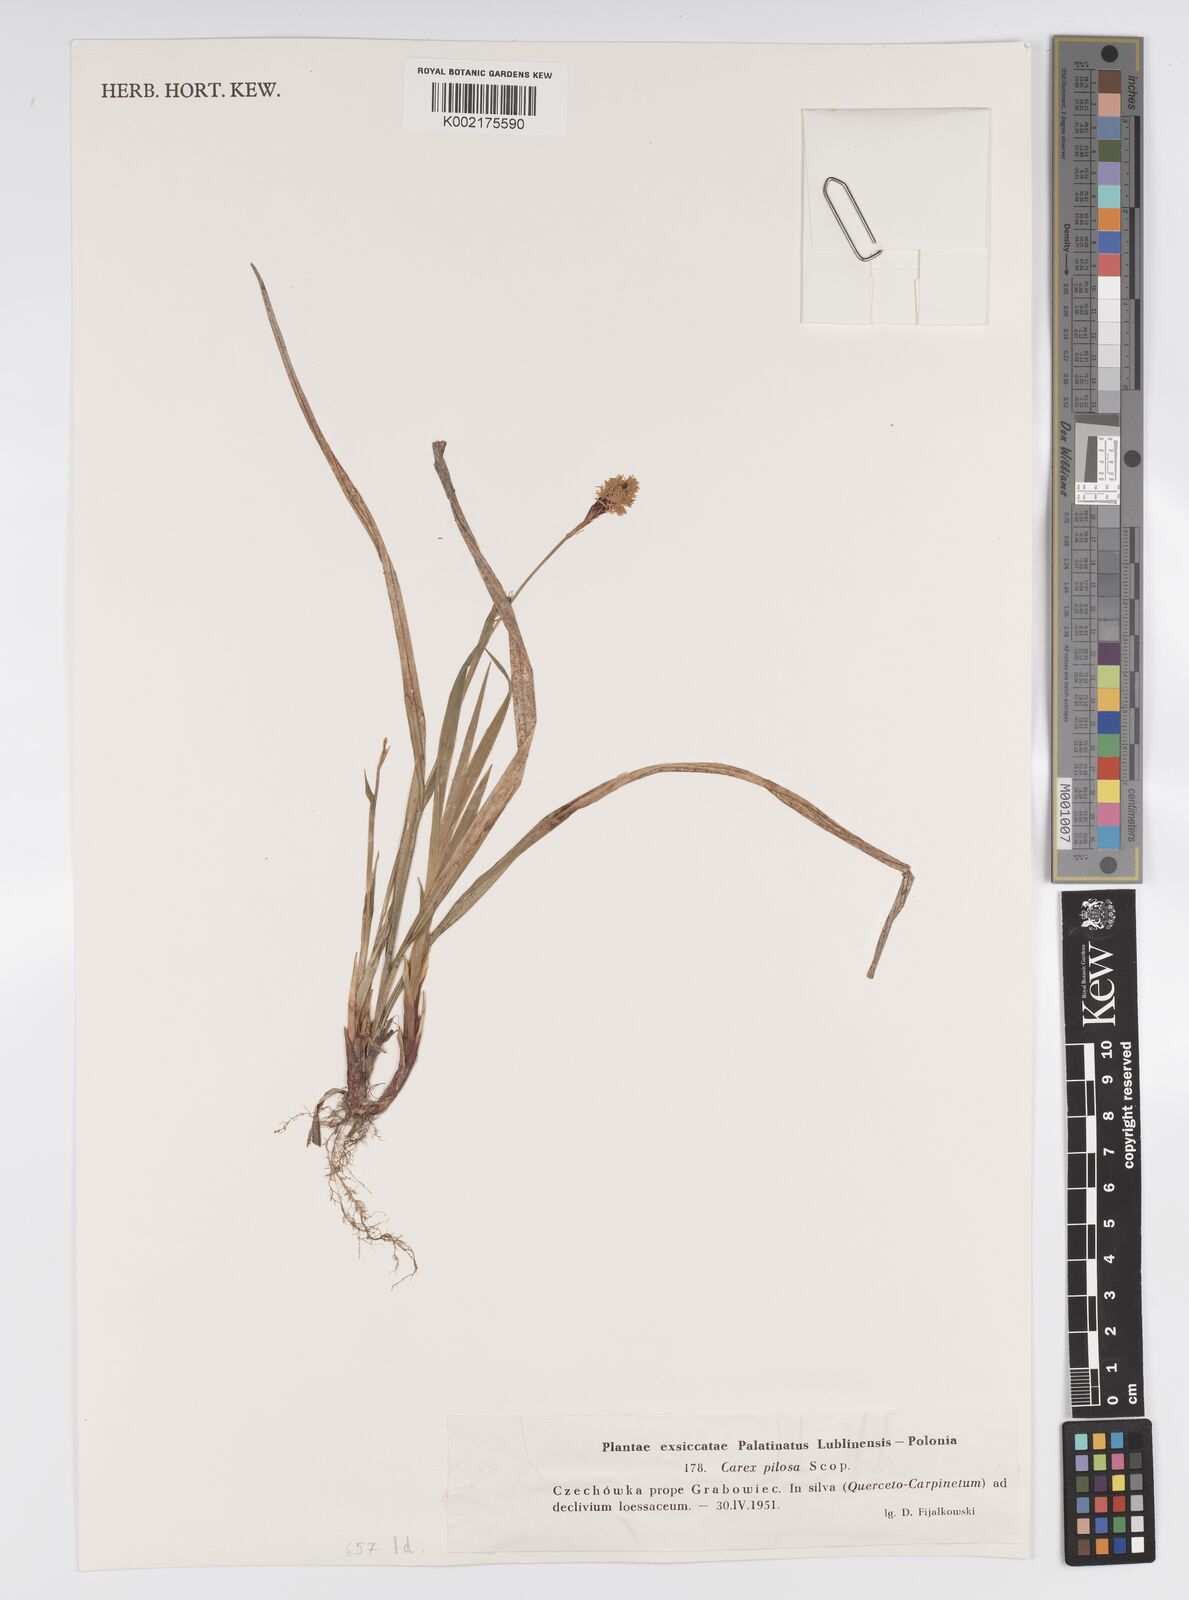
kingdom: Plantae
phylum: Tracheophyta
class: Liliopsida
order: Poales
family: Cyperaceae
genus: Carex
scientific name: Carex pilosa
